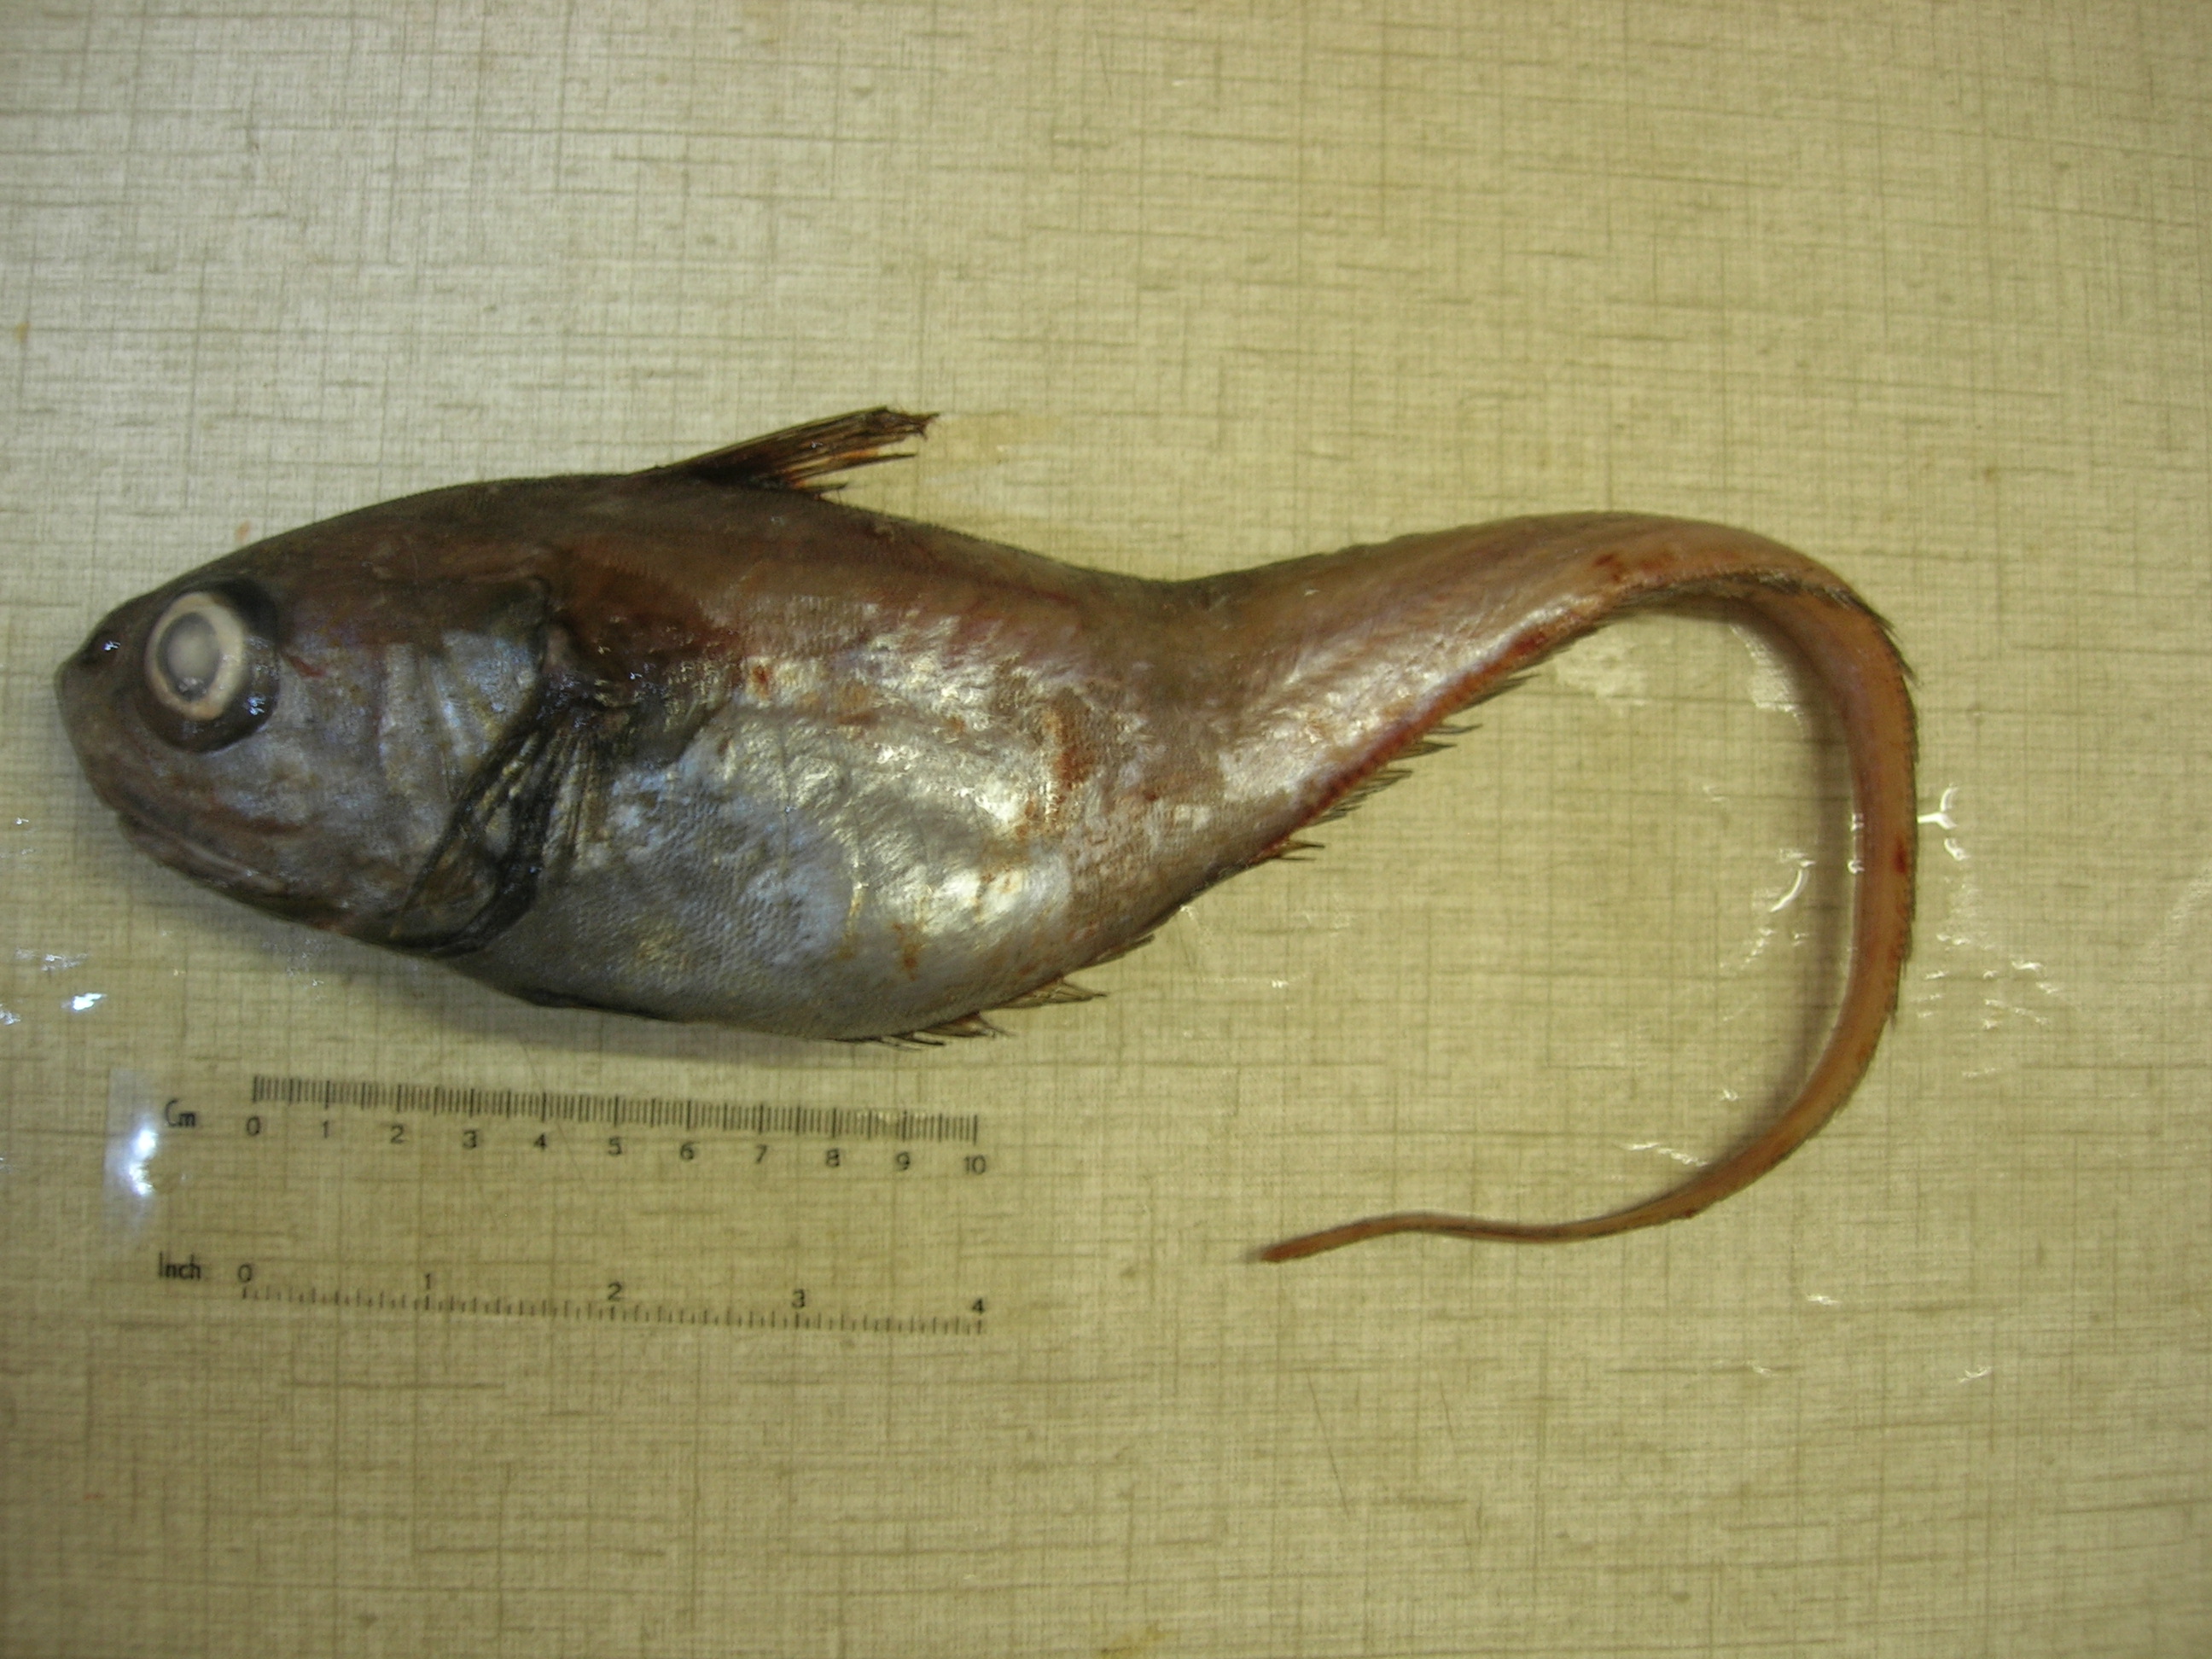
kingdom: Animalia
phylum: Chordata
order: Gadiformes
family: Macrouridae
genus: Malacocephalus
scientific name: Malacocephalus laevis
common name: Softhead grenadier
